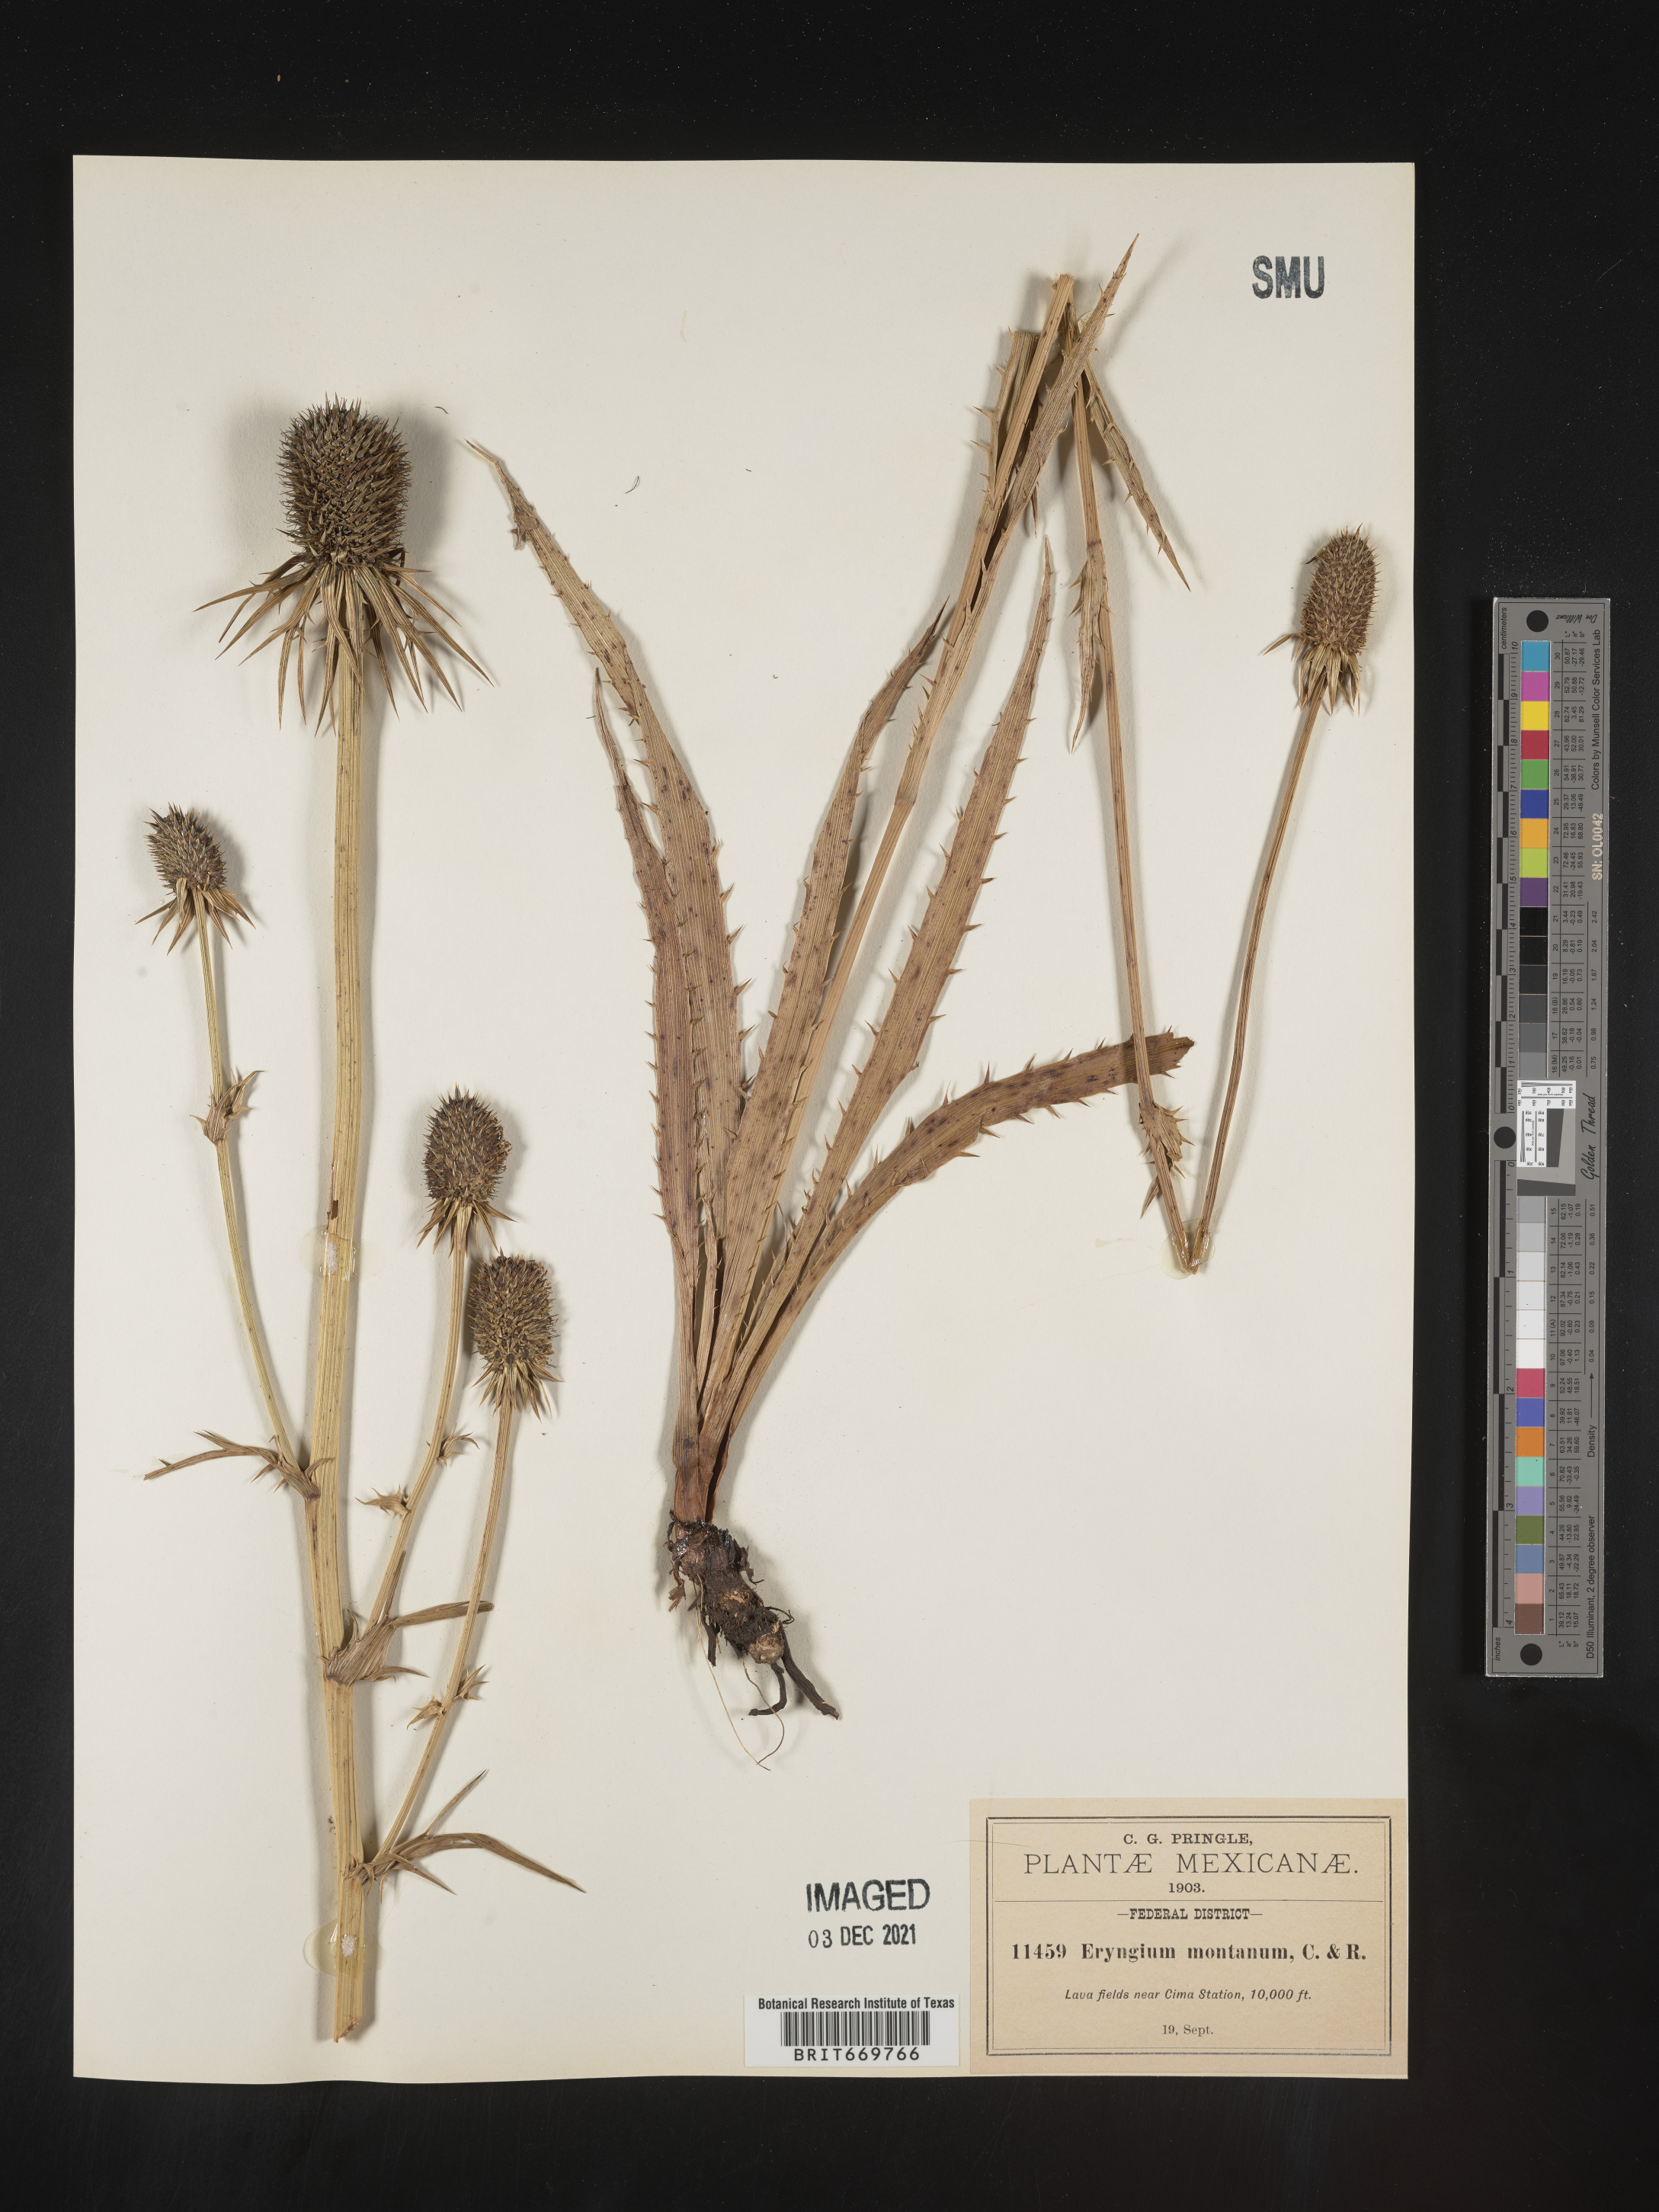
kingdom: Plantae
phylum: Tracheophyta
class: Magnoliopsida
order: Apiales
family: Apiaceae
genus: Eryngium
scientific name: Eryngium
